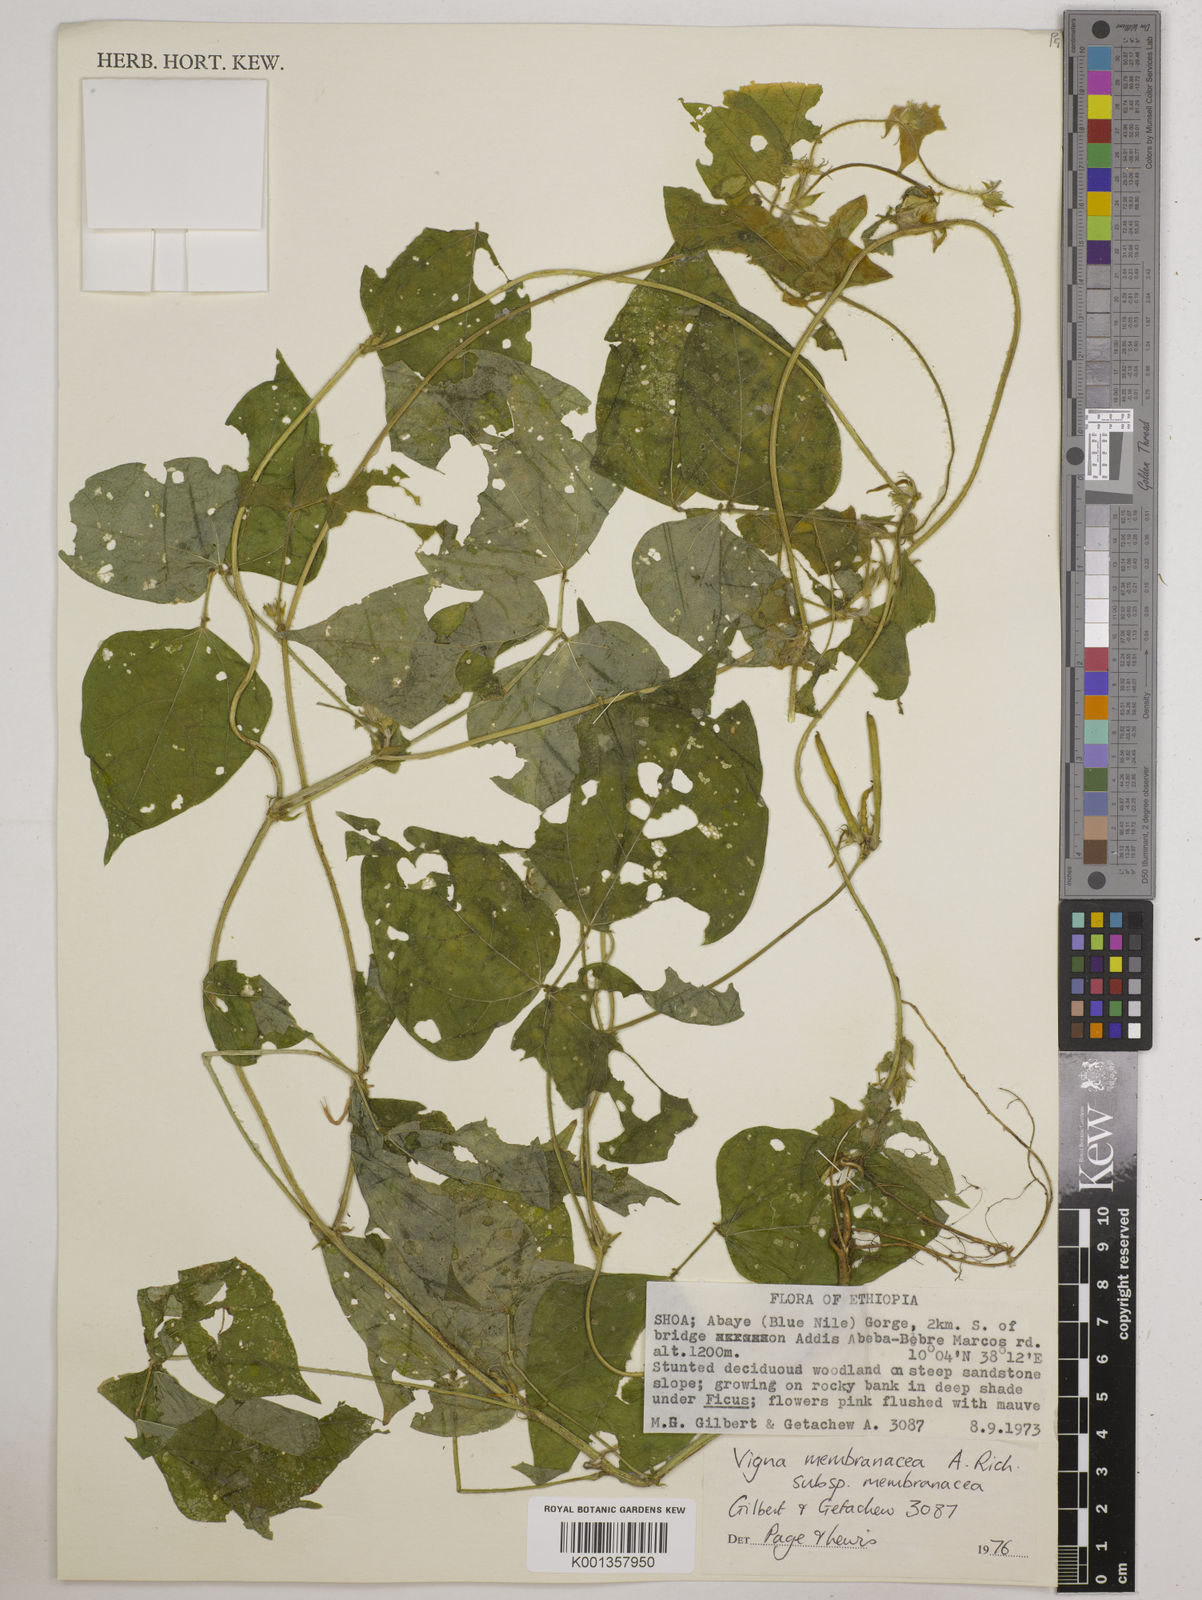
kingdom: Plantae
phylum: Tracheophyta
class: Magnoliopsida
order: Fabales
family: Fabaceae
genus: Vigna
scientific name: Vigna membranacea
